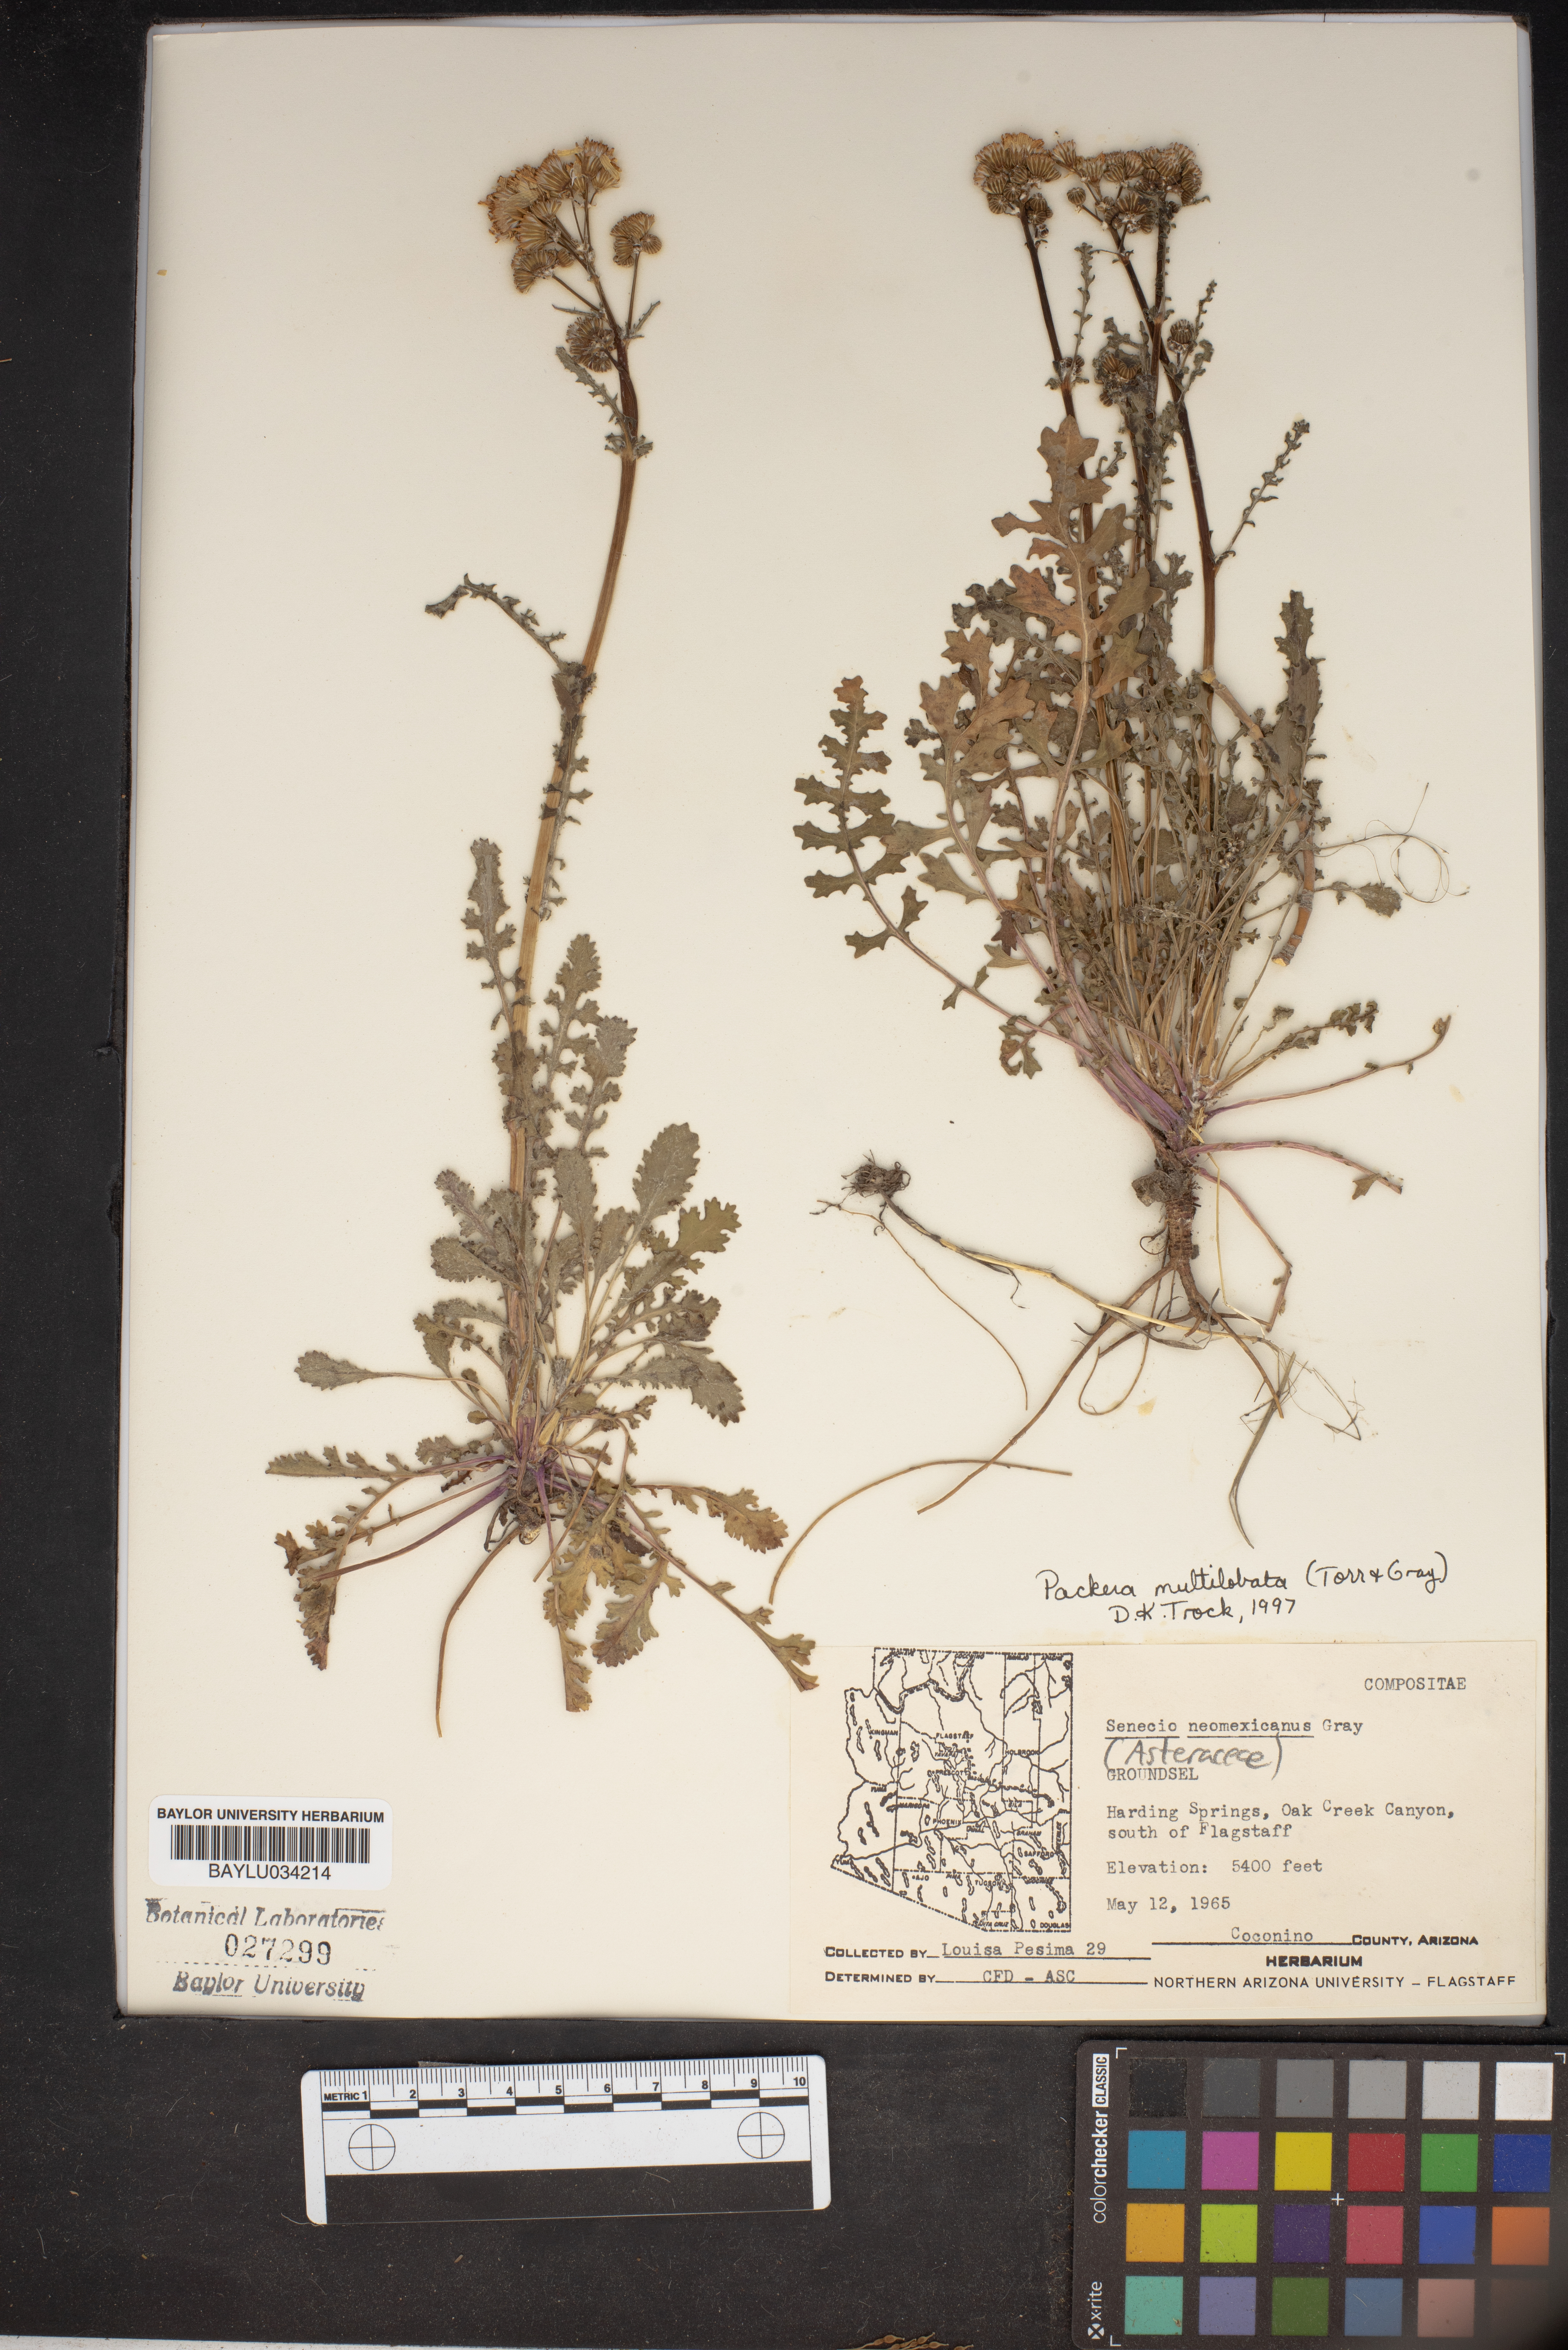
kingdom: Plantae
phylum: Tracheophyta
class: Magnoliopsida
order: Asterales
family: Asteraceae
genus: Packera
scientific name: Packera neomexicana
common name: New mexico butterweed
